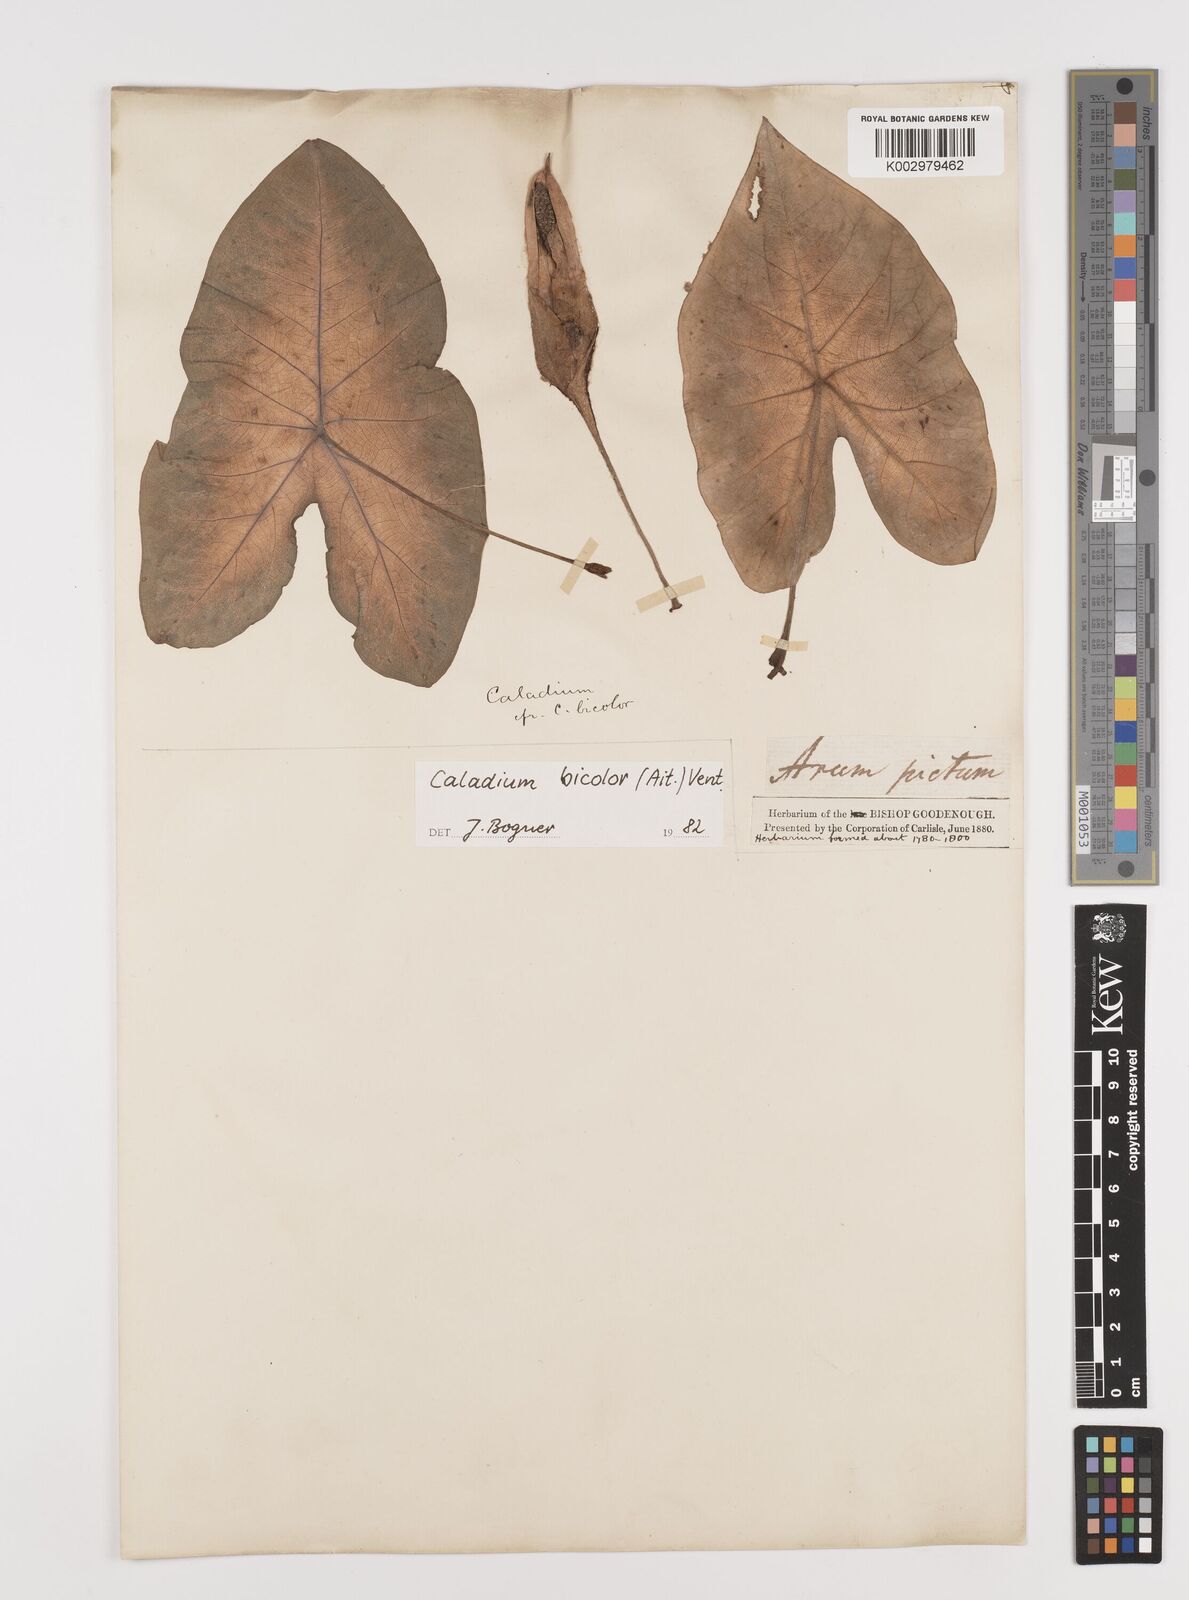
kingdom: Plantae
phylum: Tracheophyta
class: Liliopsida
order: Alismatales
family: Araceae
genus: Caladium
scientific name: Caladium bicolor
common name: Artist's pallet
